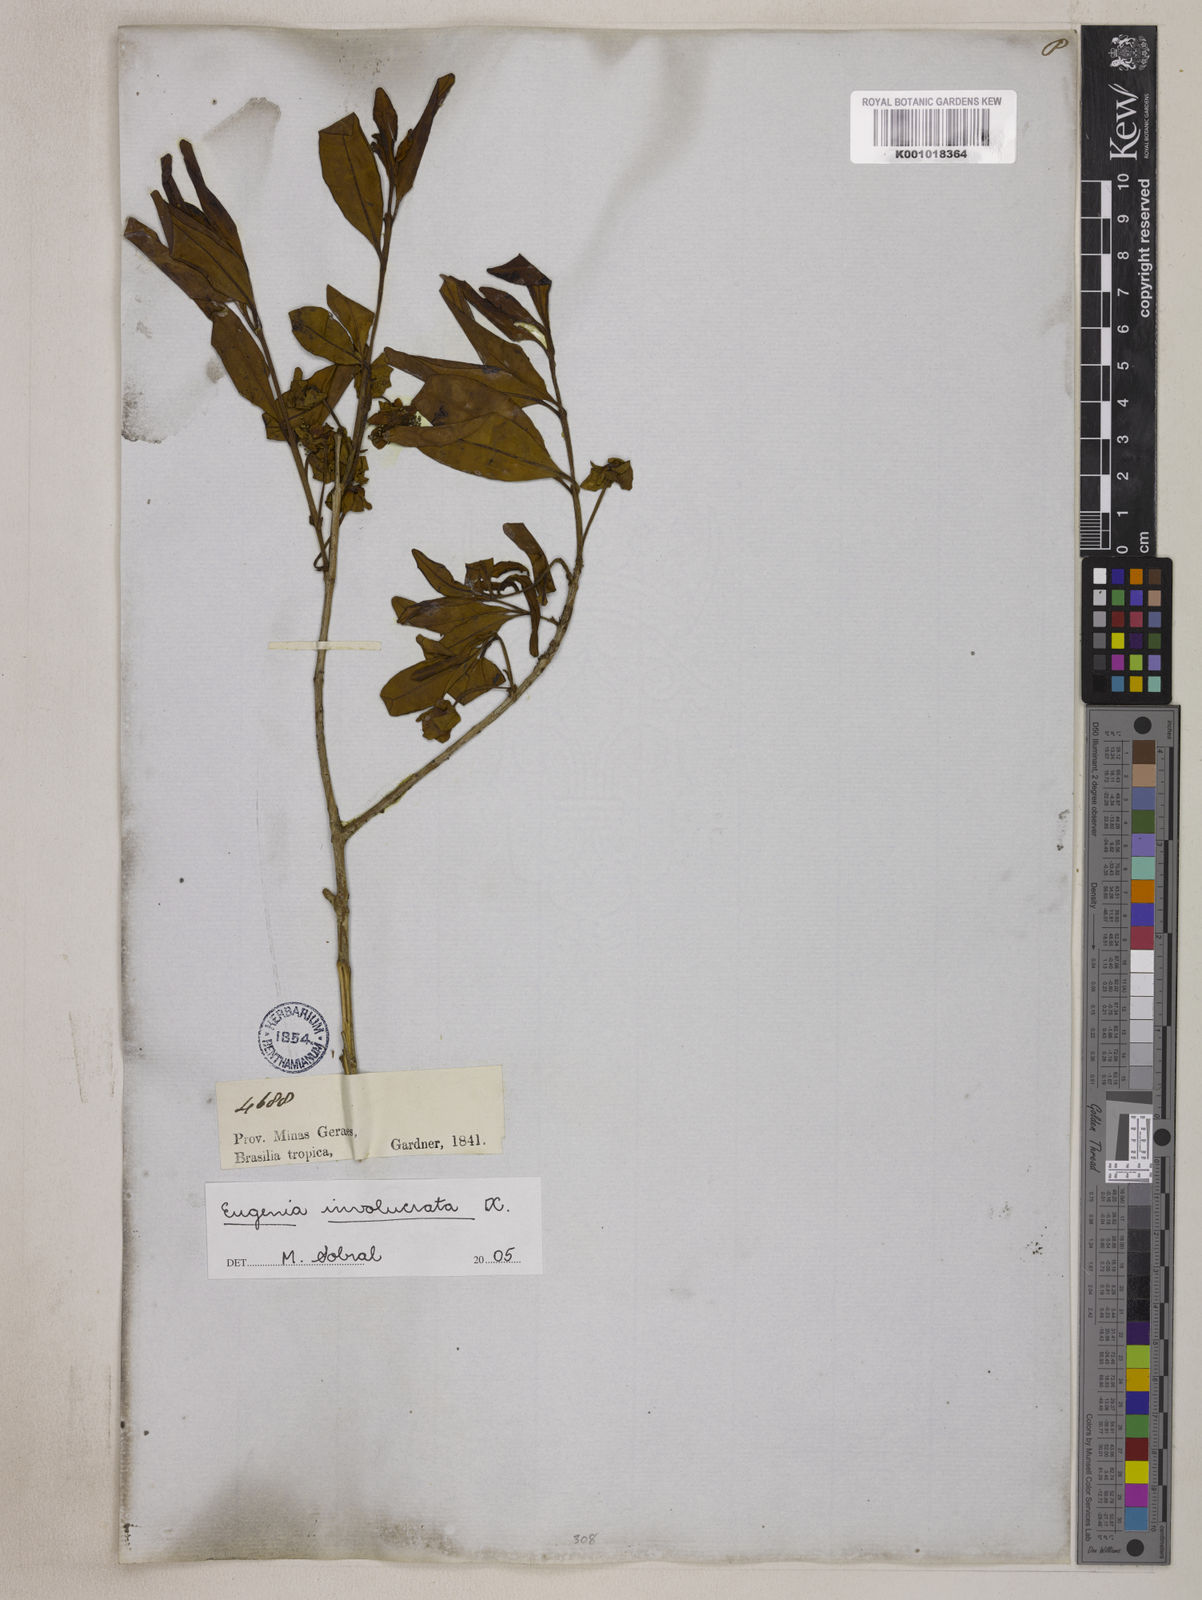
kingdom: Plantae
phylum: Tracheophyta
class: Magnoliopsida
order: Myrtales
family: Myrtaceae
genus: Eugenia
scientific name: Eugenia involucrata
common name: Cherry-of-the-rio grande
